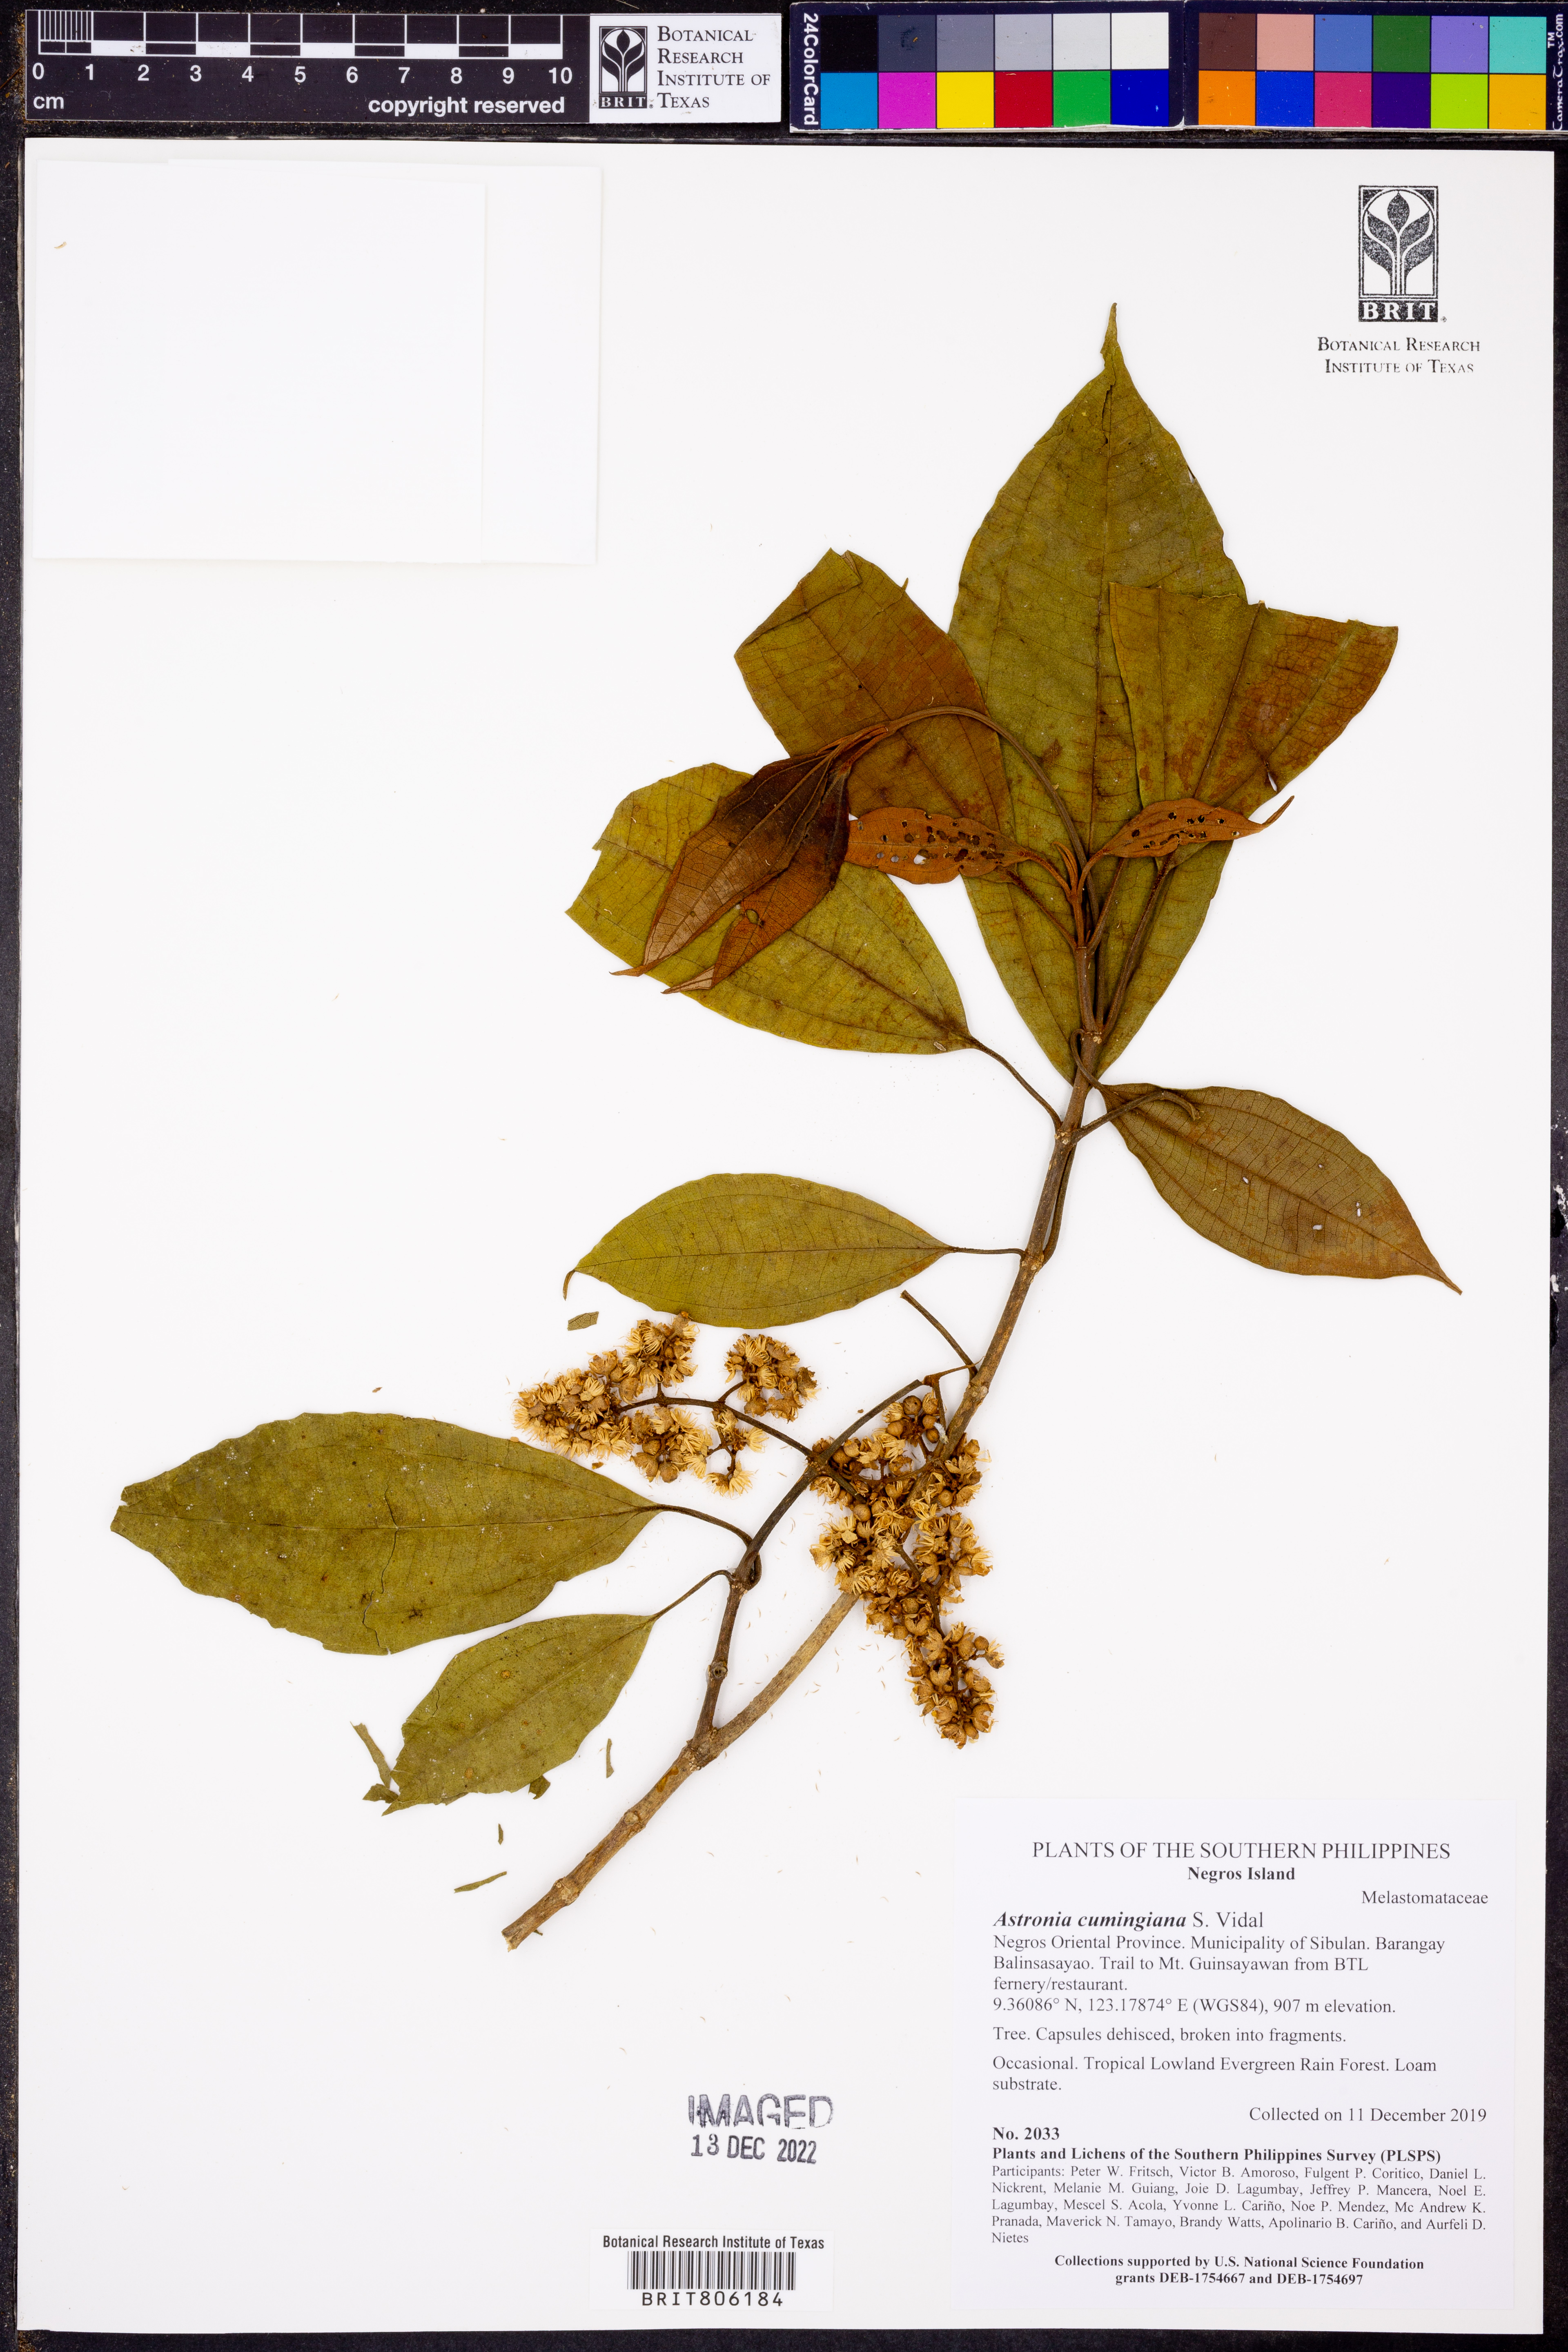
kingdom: Plantae
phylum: Tracheophyta
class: Magnoliopsida
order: Myrtales
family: Melastomataceae
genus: Astronia
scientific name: Astronia cumingiana
